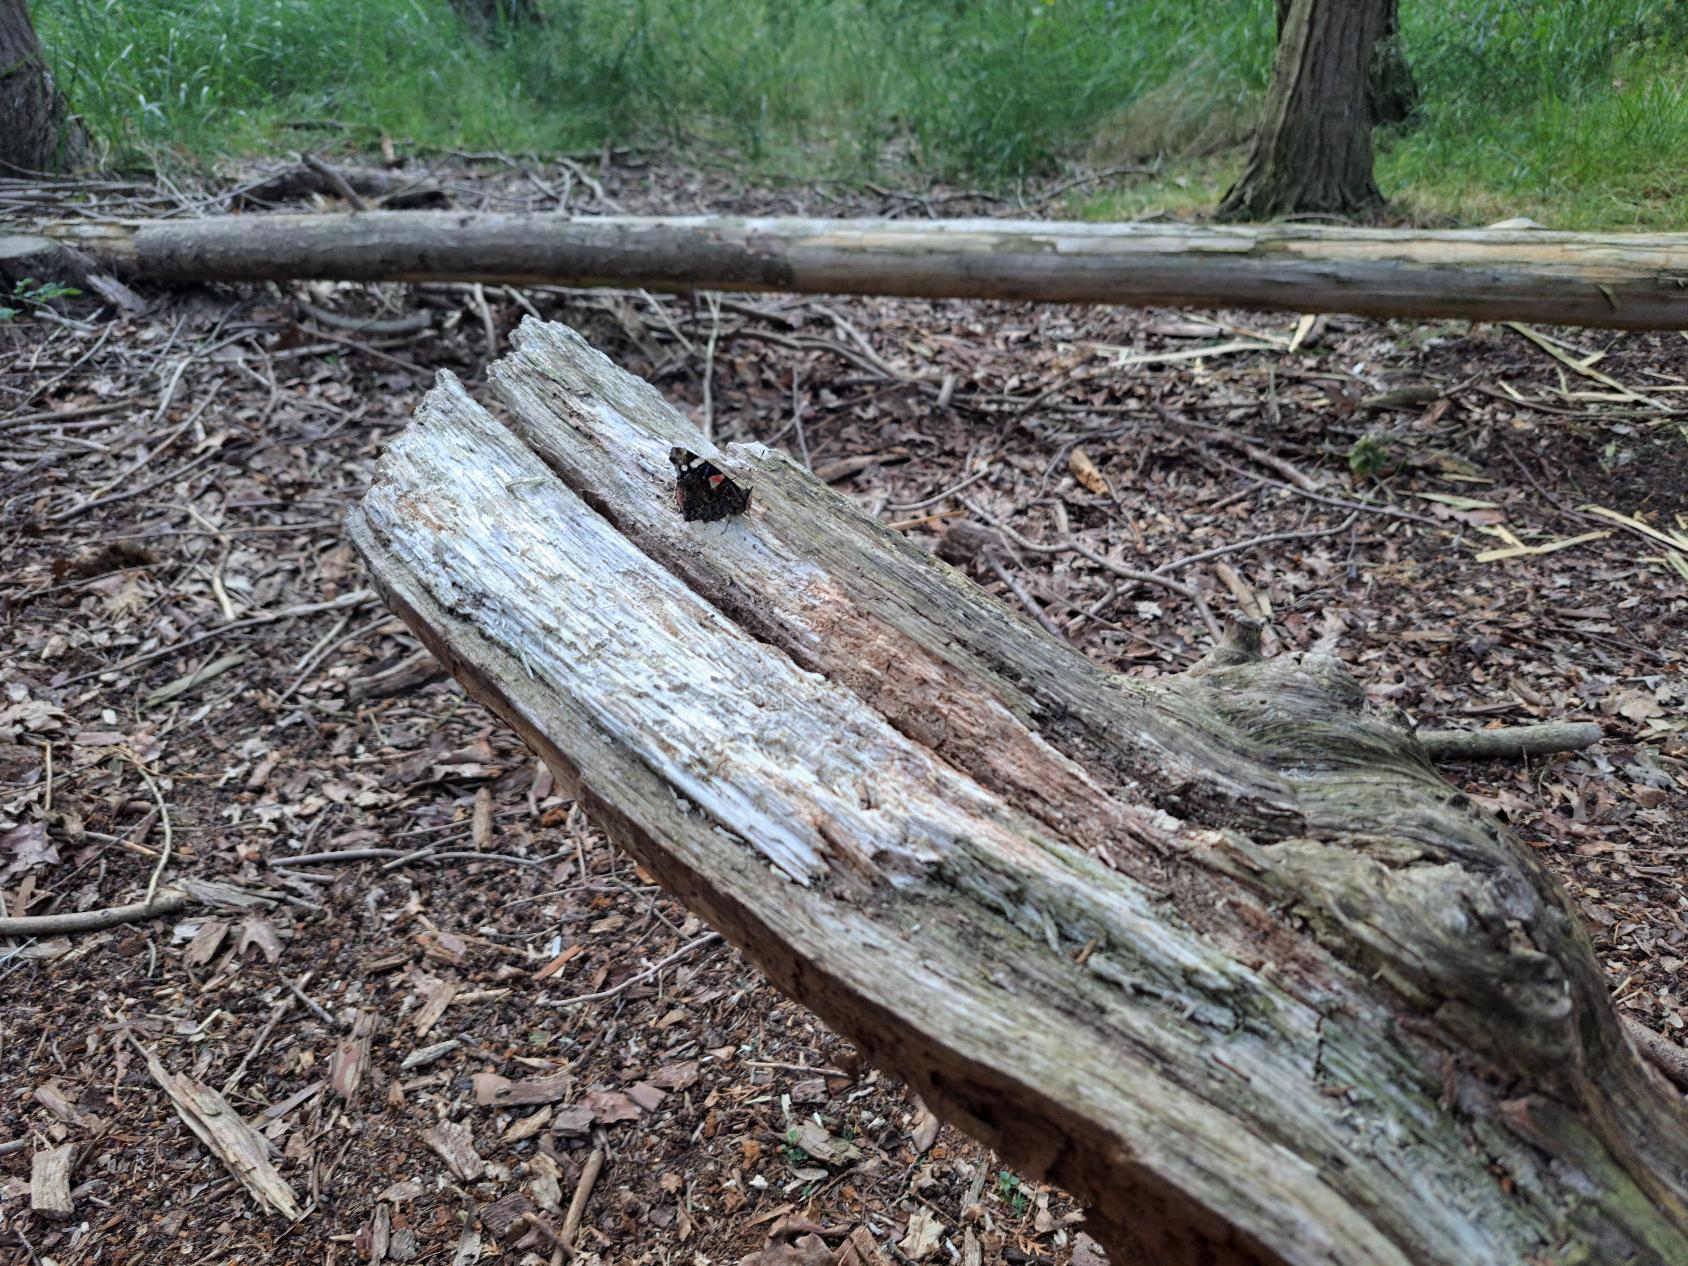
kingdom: Animalia
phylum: Arthropoda
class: Insecta
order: Lepidoptera
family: Nymphalidae
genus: Vanessa
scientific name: Vanessa atalanta
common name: Admiral
